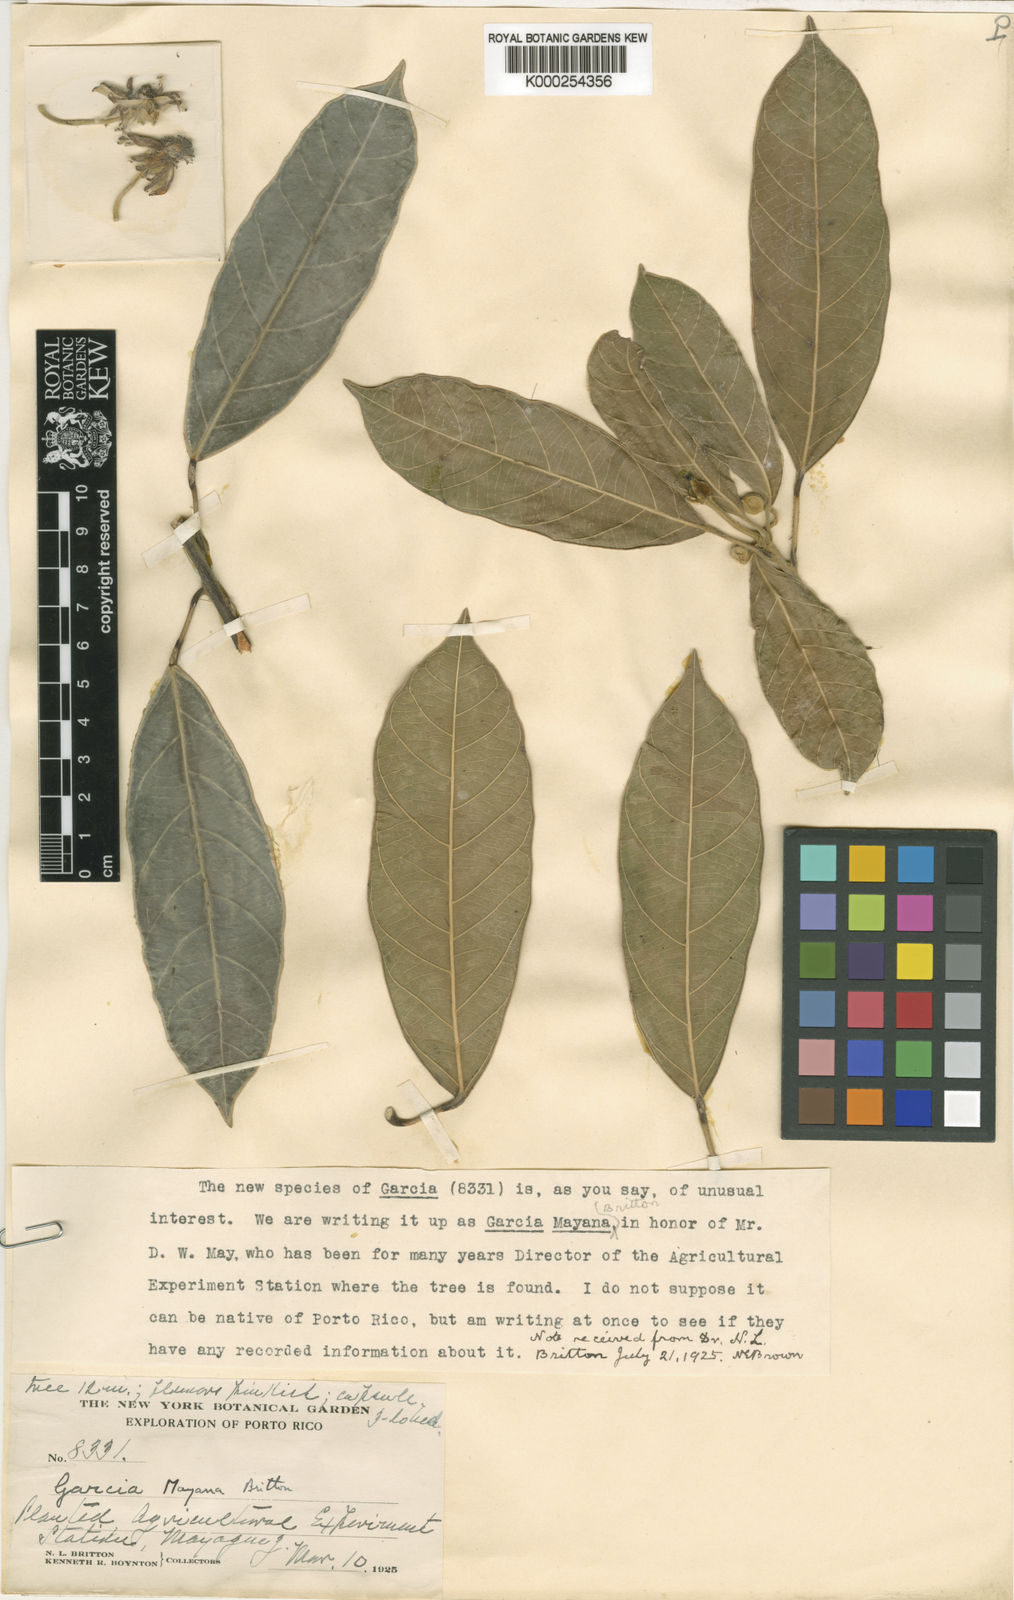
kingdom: Plantae
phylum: Tracheophyta
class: Magnoliopsida
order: Malpighiales
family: Euphorbiaceae
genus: Garcia
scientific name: Garcia nutans
